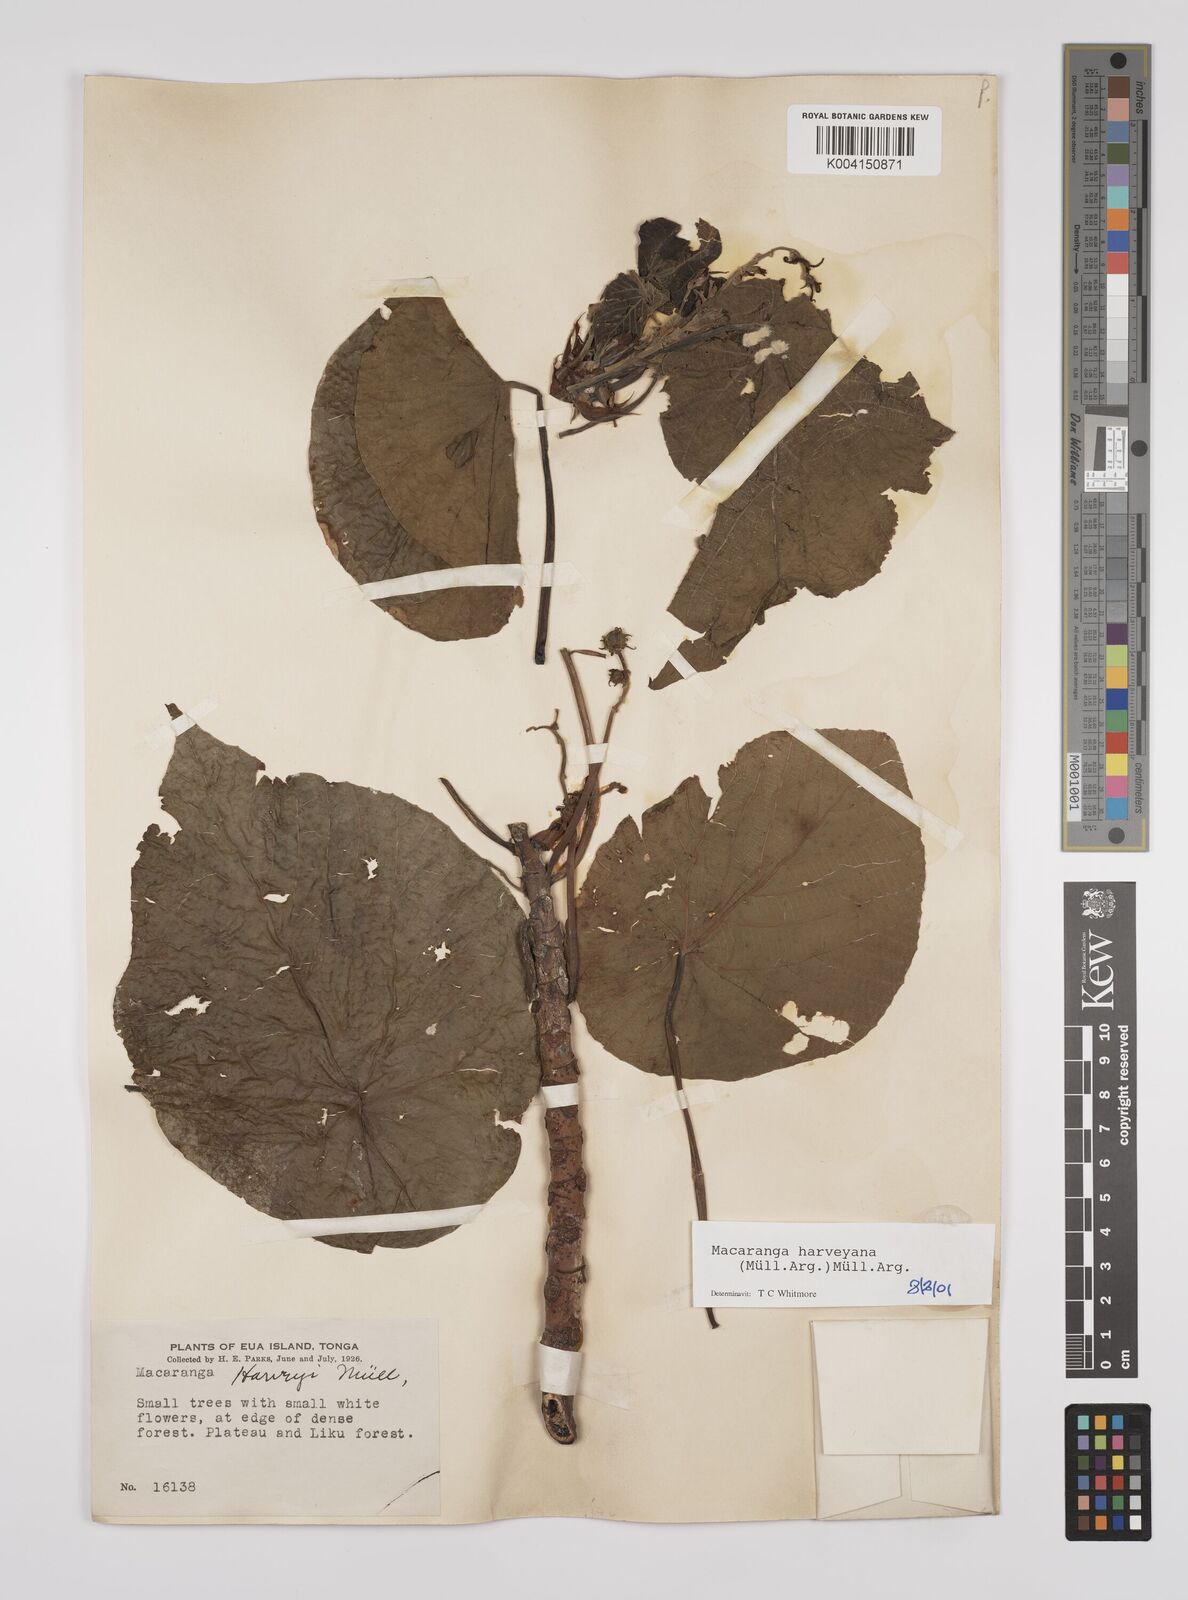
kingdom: Plantae
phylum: Tracheophyta
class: Magnoliopsida
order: Malpighiales
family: Euphorbiaceae
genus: Macaranga
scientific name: Macaranga harveyana
